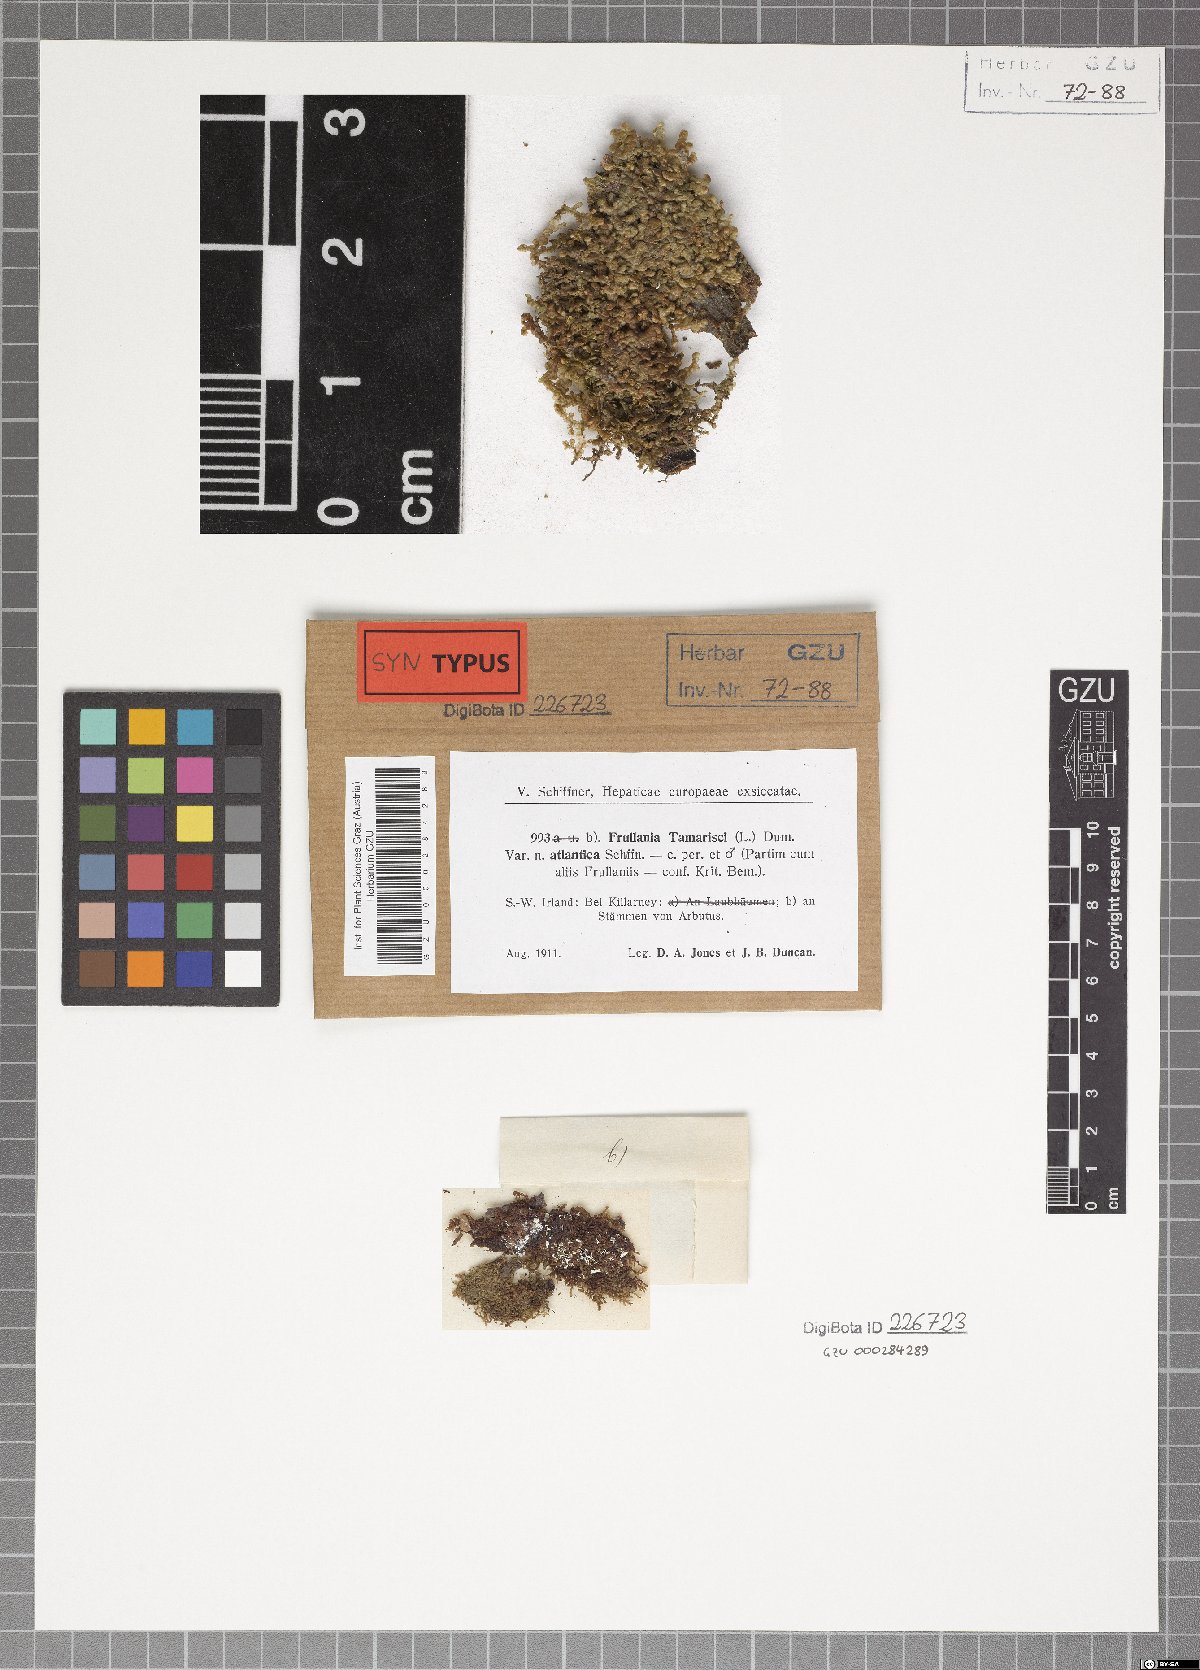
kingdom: Plantae
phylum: Marchantiophyta
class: Jungermanniopsida
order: Porellales
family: Frullaniaceae
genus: Frullania
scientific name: Frullania tamarisci
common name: Tamarisk scalewort
